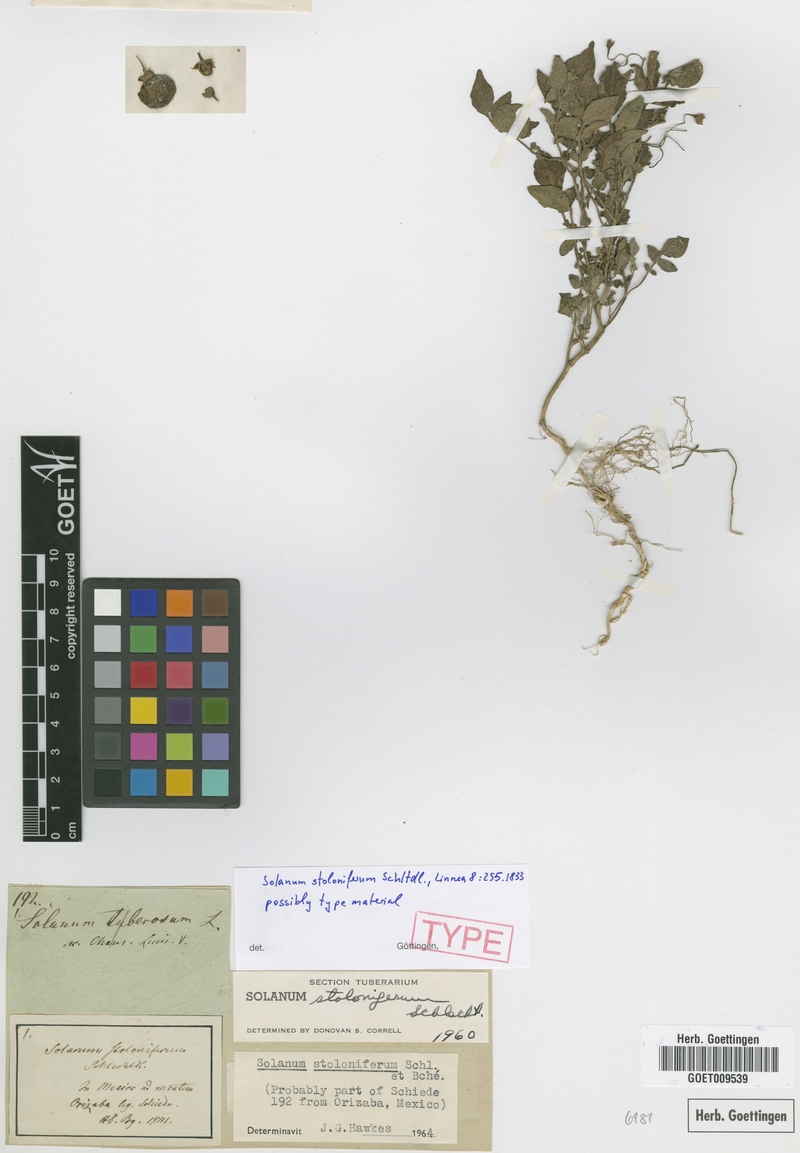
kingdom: Plantae
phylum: Tracheophyta
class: Magnoliopsida
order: Solanales
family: Solanaceae
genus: Solanum
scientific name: Solanum stoloniferum
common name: Fendler's nighshade
